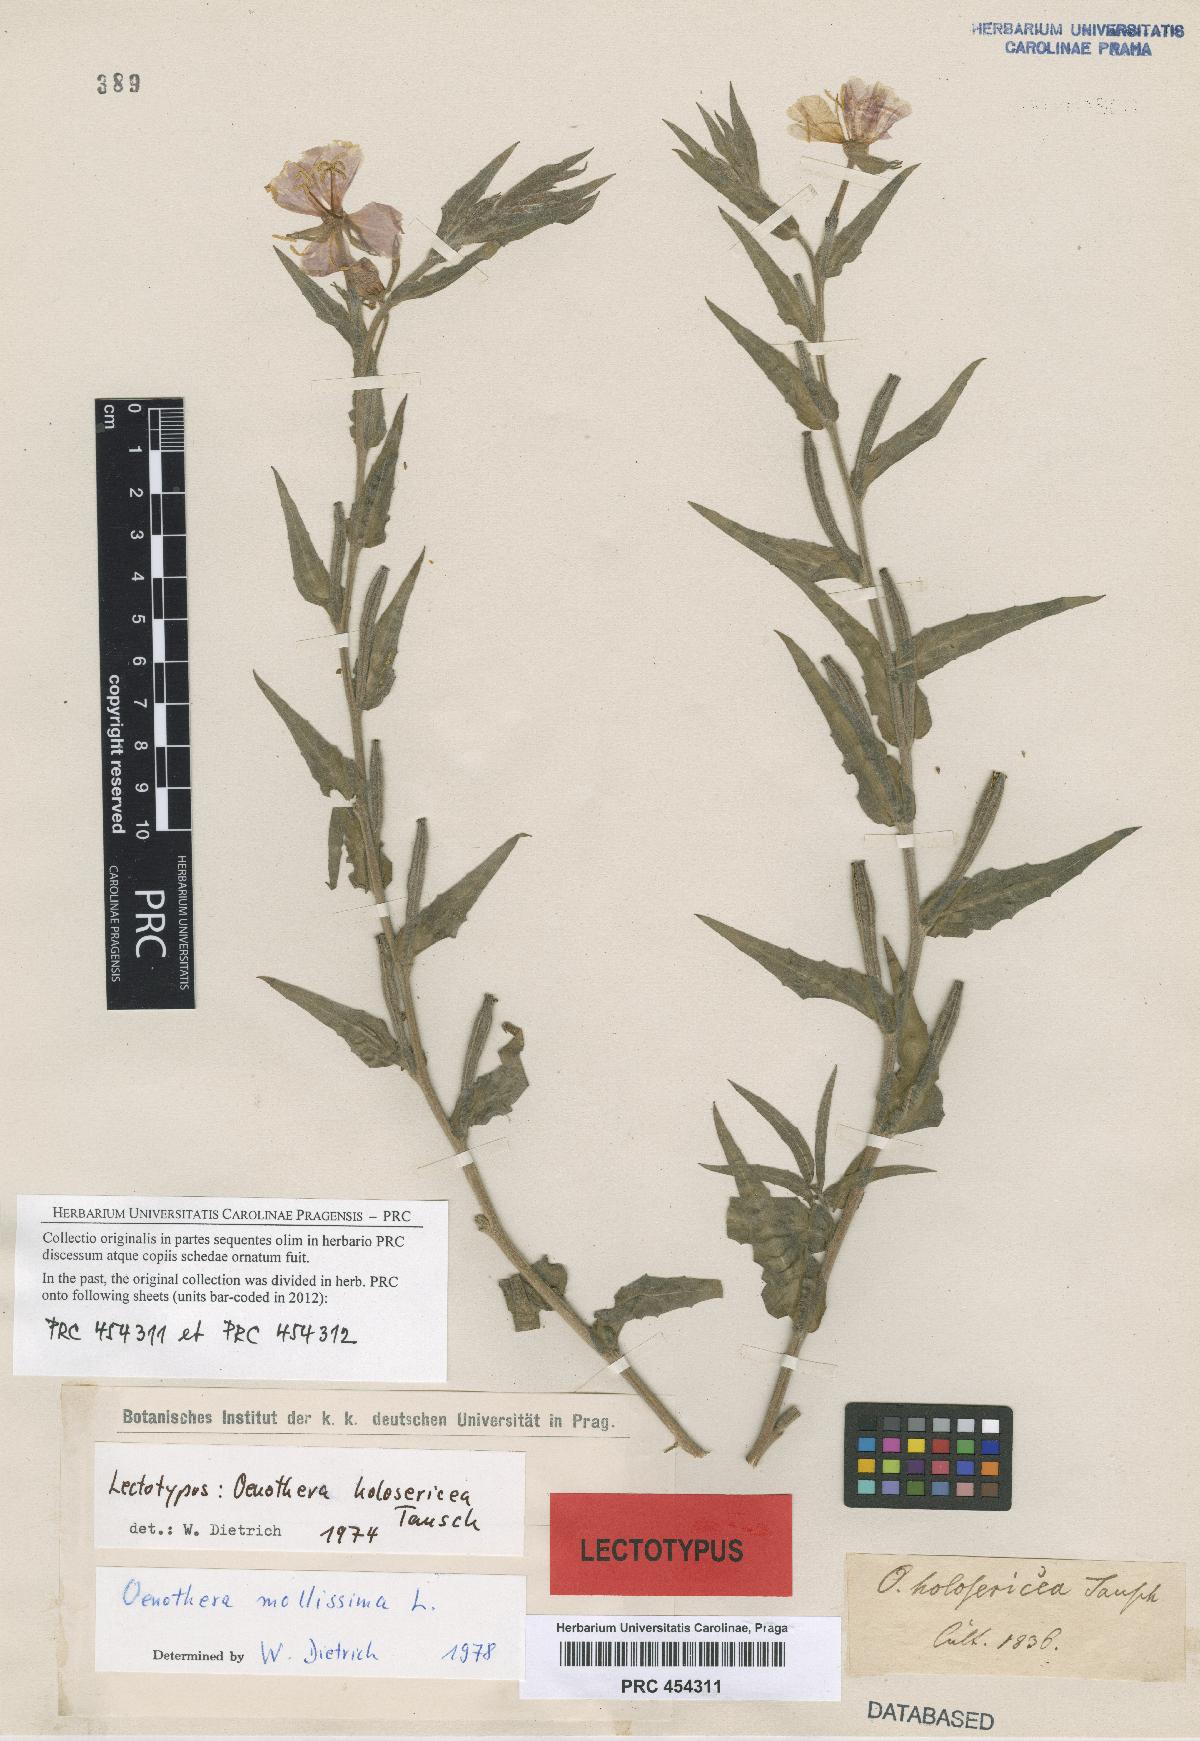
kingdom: Plantae
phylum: Tracheophyta
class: Magnoliopsida
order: Myrtales
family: Onagraceae
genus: Oenothera
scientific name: Oenothera mollissima
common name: Argentine evening primrose
